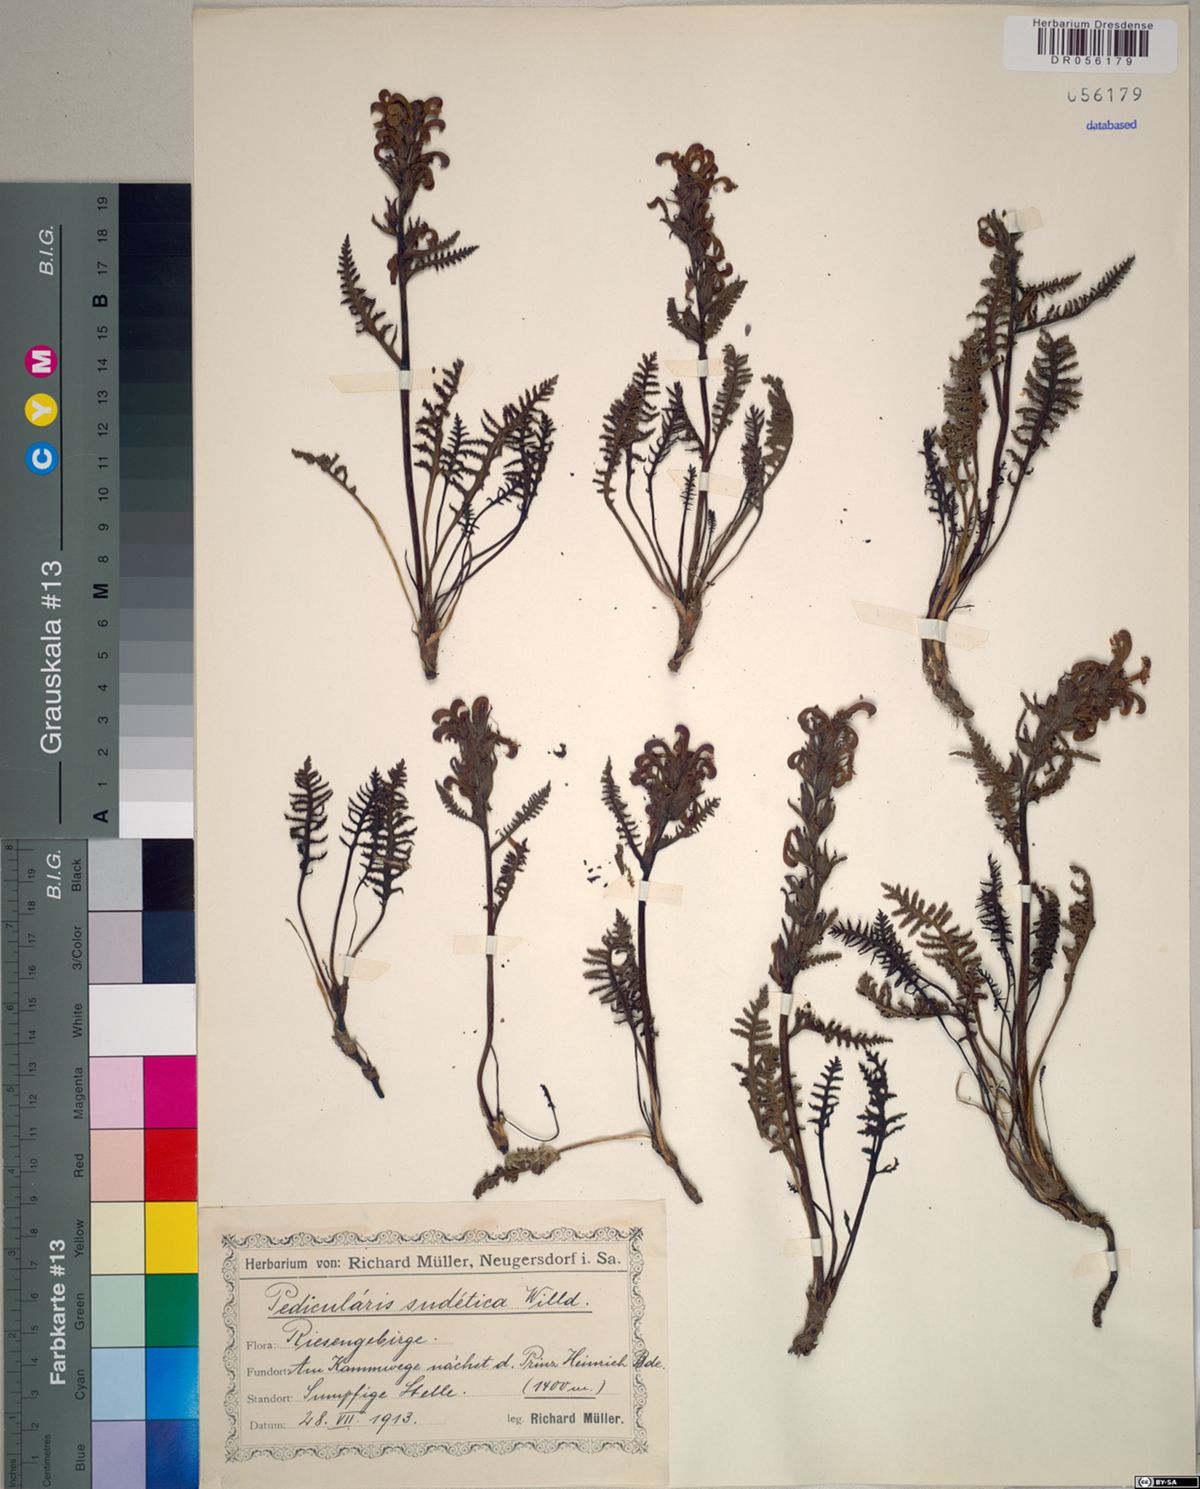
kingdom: Plantae
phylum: Tracheophyta
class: Magnoliopsida
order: Lamiales
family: Orobanchaceae
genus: Pedicularis
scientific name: Pedicularis sudetica
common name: Sudeten lousewort
